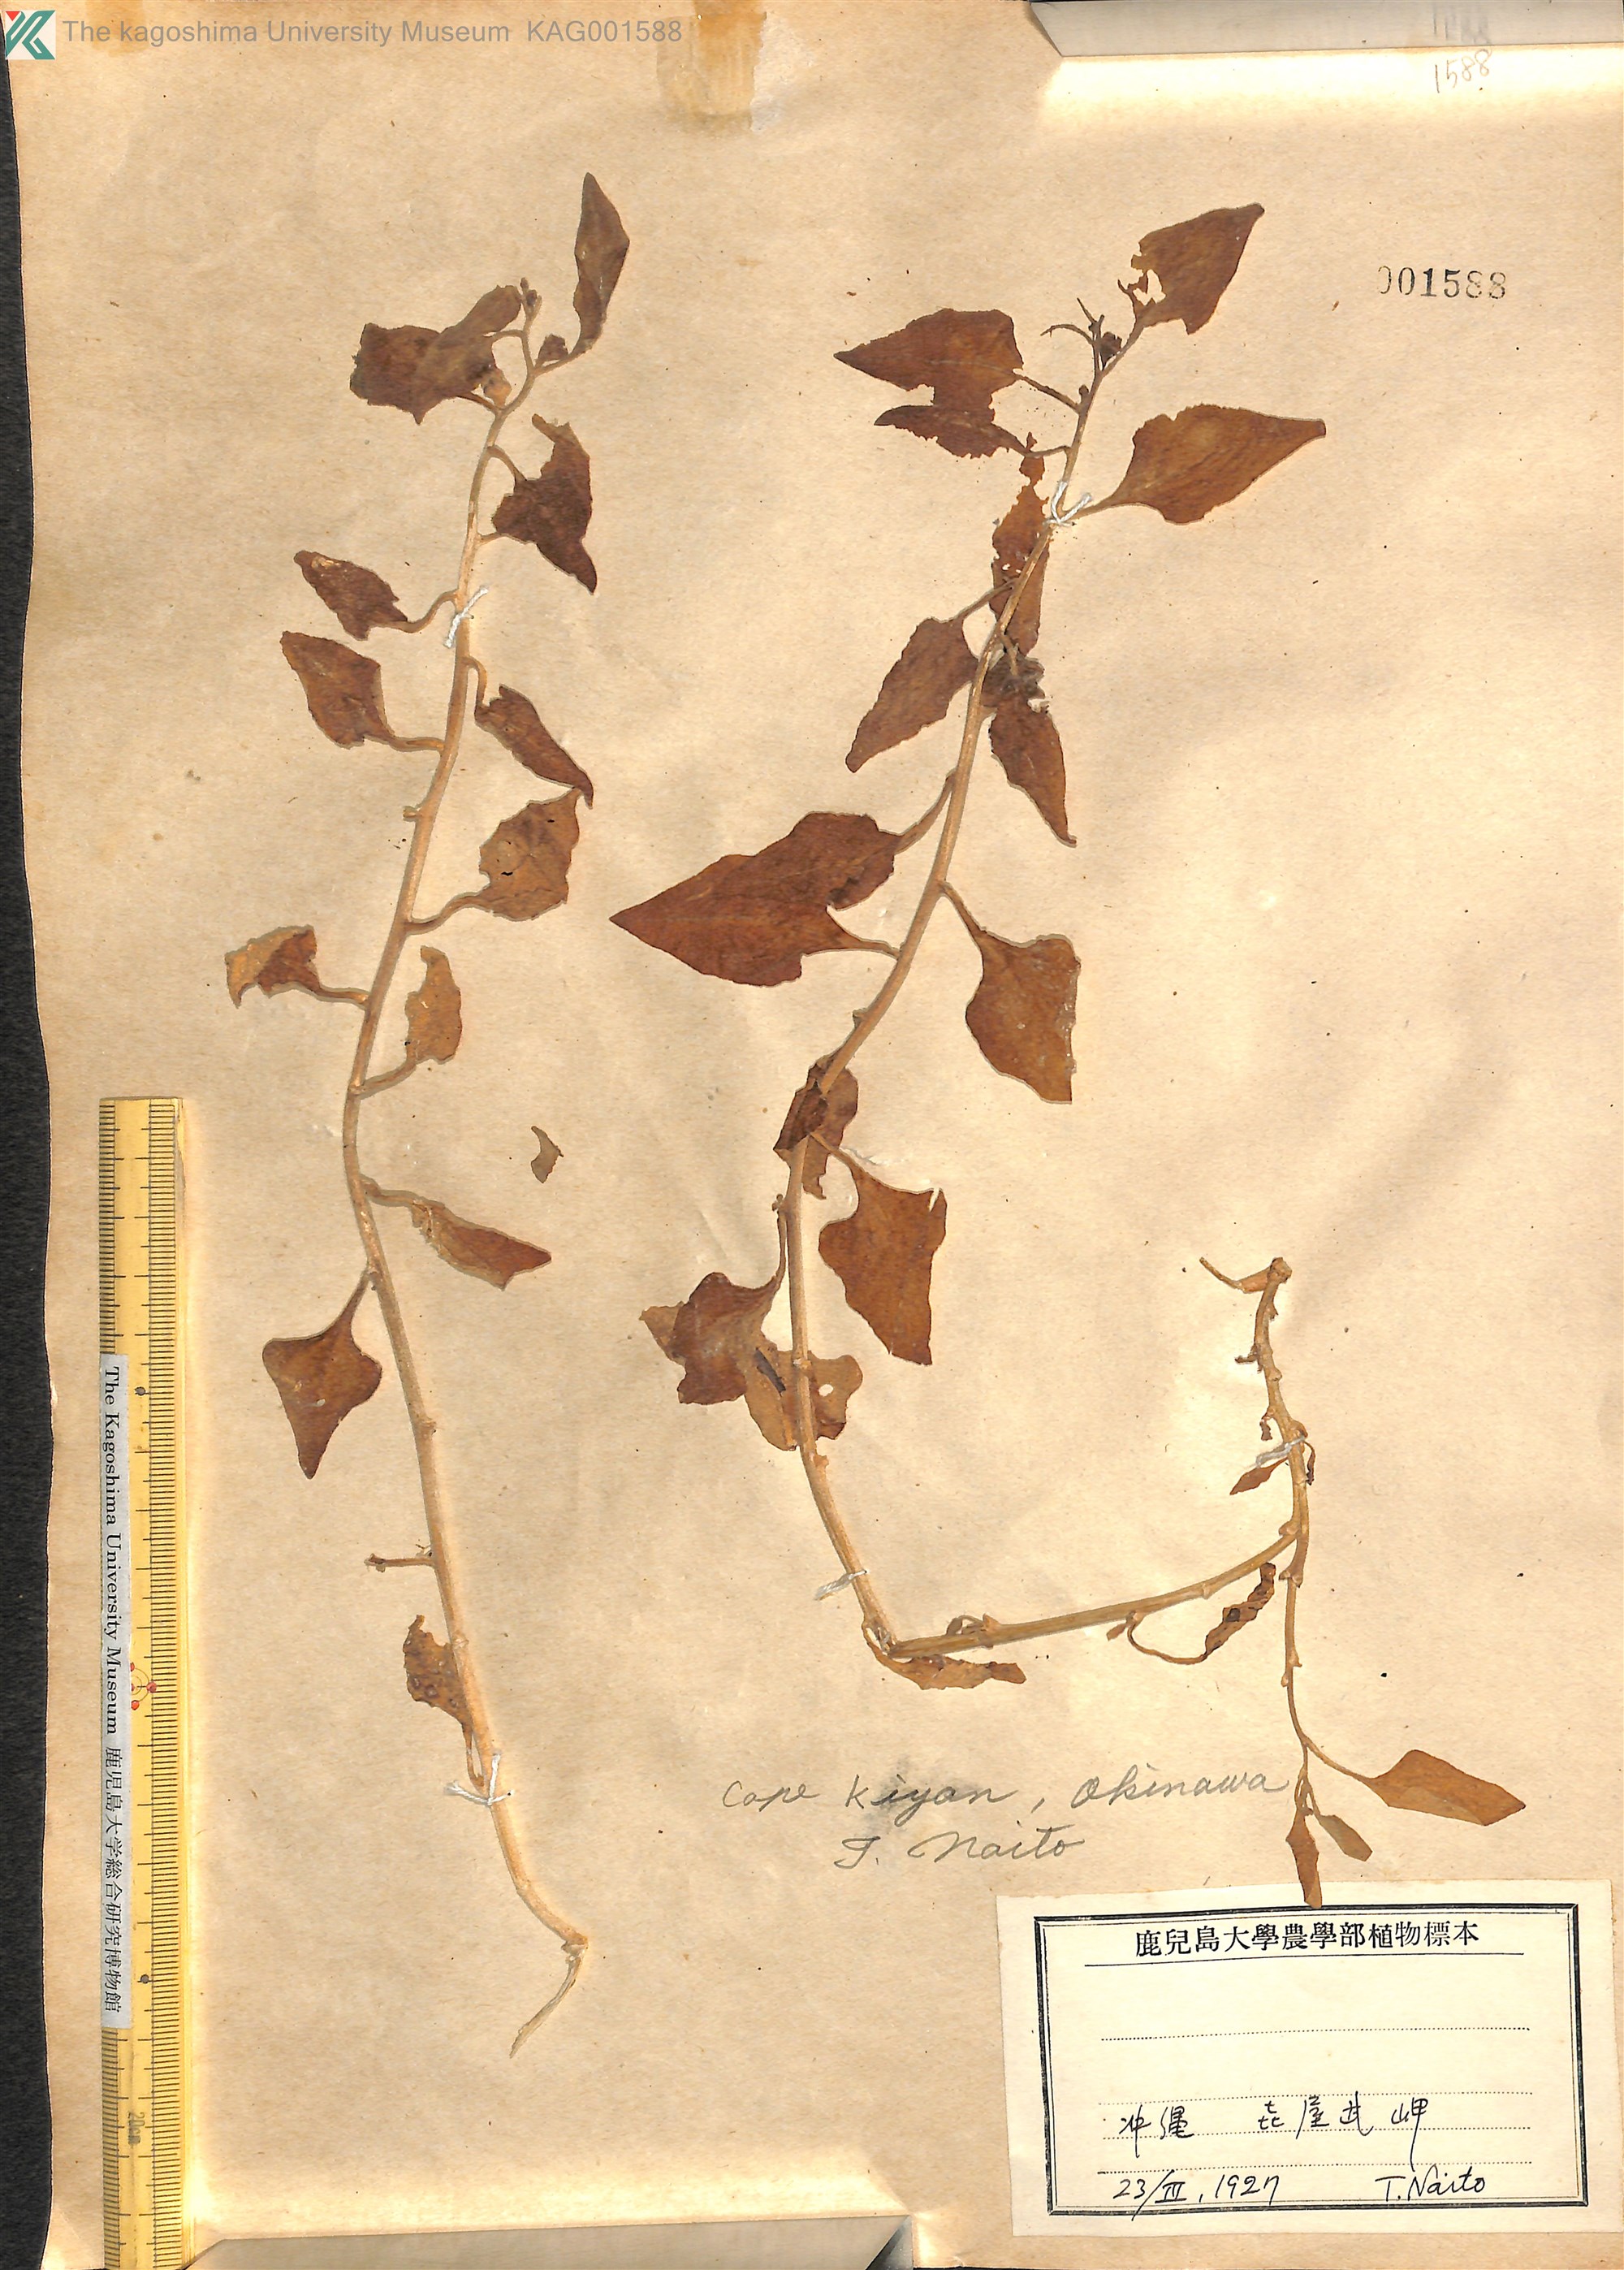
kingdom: Plantae
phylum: Tracheophyta
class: Magnoliopsida
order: Caryophyllales
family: Aizoaceae
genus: Tetragonia
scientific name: Tetragonia tetragonoides
